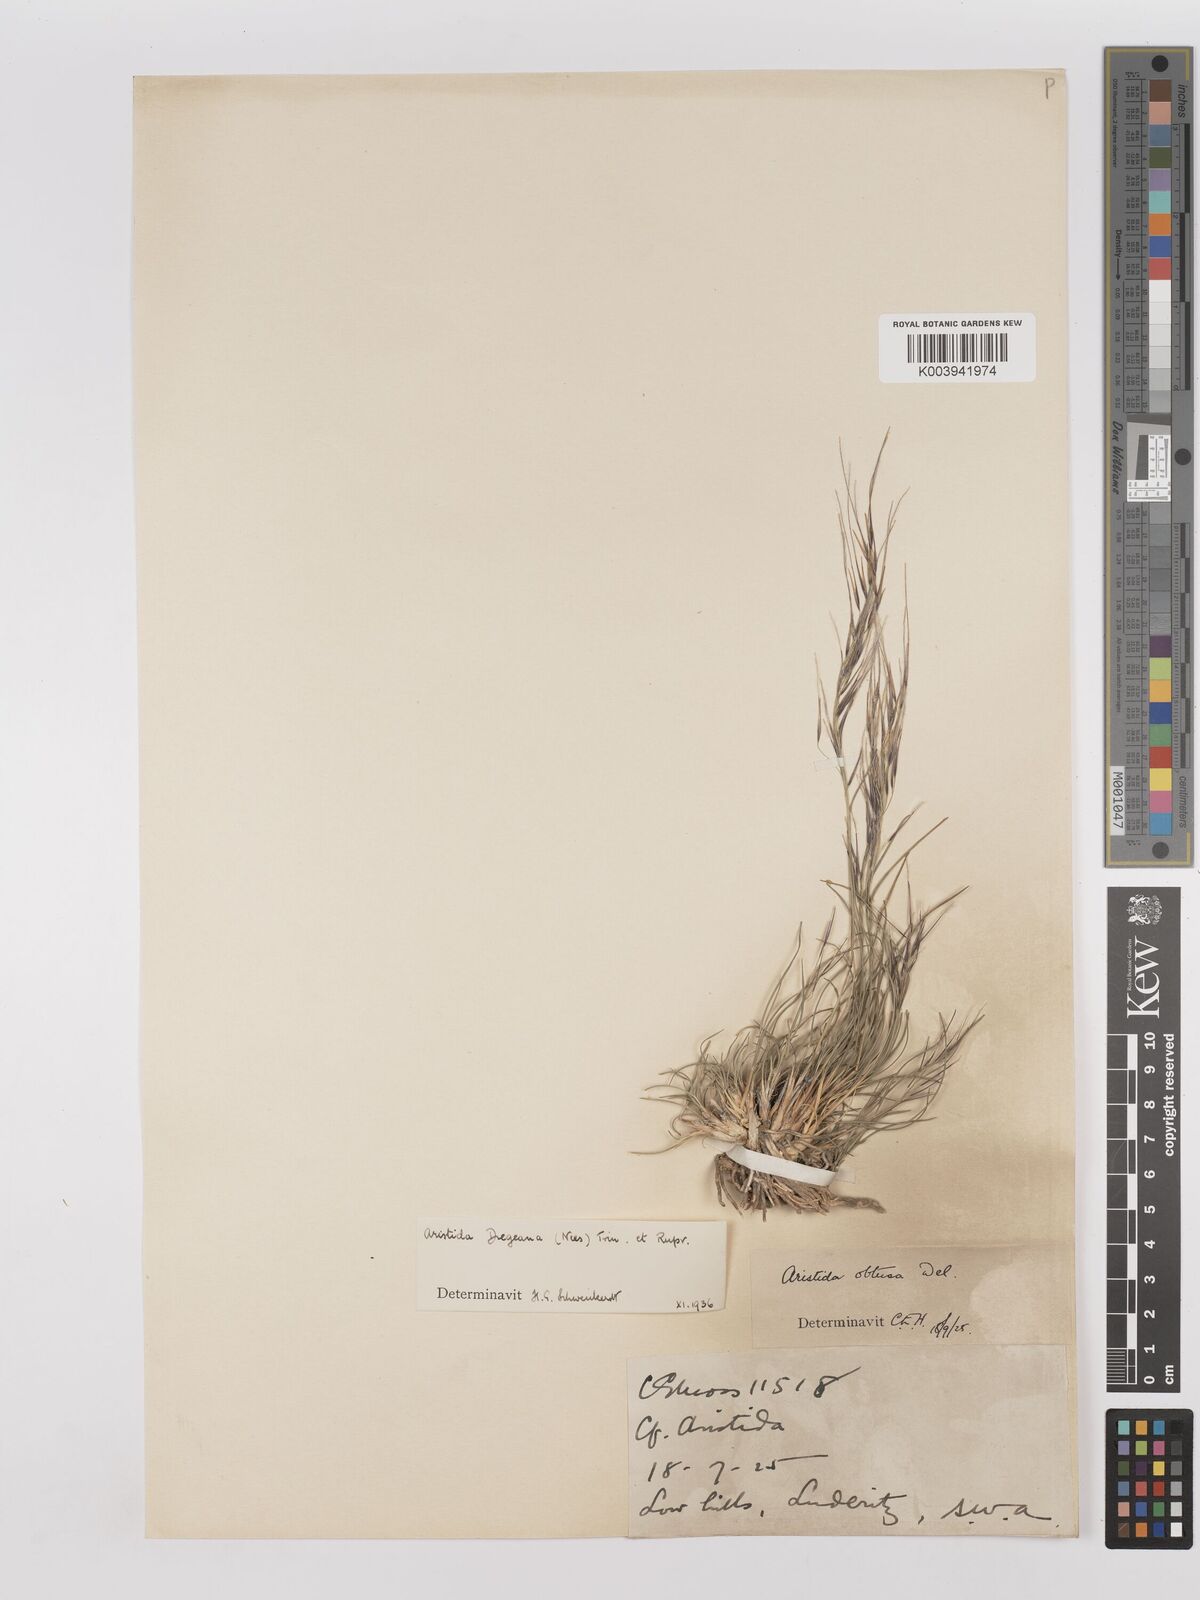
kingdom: Plantae
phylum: Tracheophyta
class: Liliopsida
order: Poales
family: Poaceae
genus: Stipagrostis
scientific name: Stipagrostis dregeana
